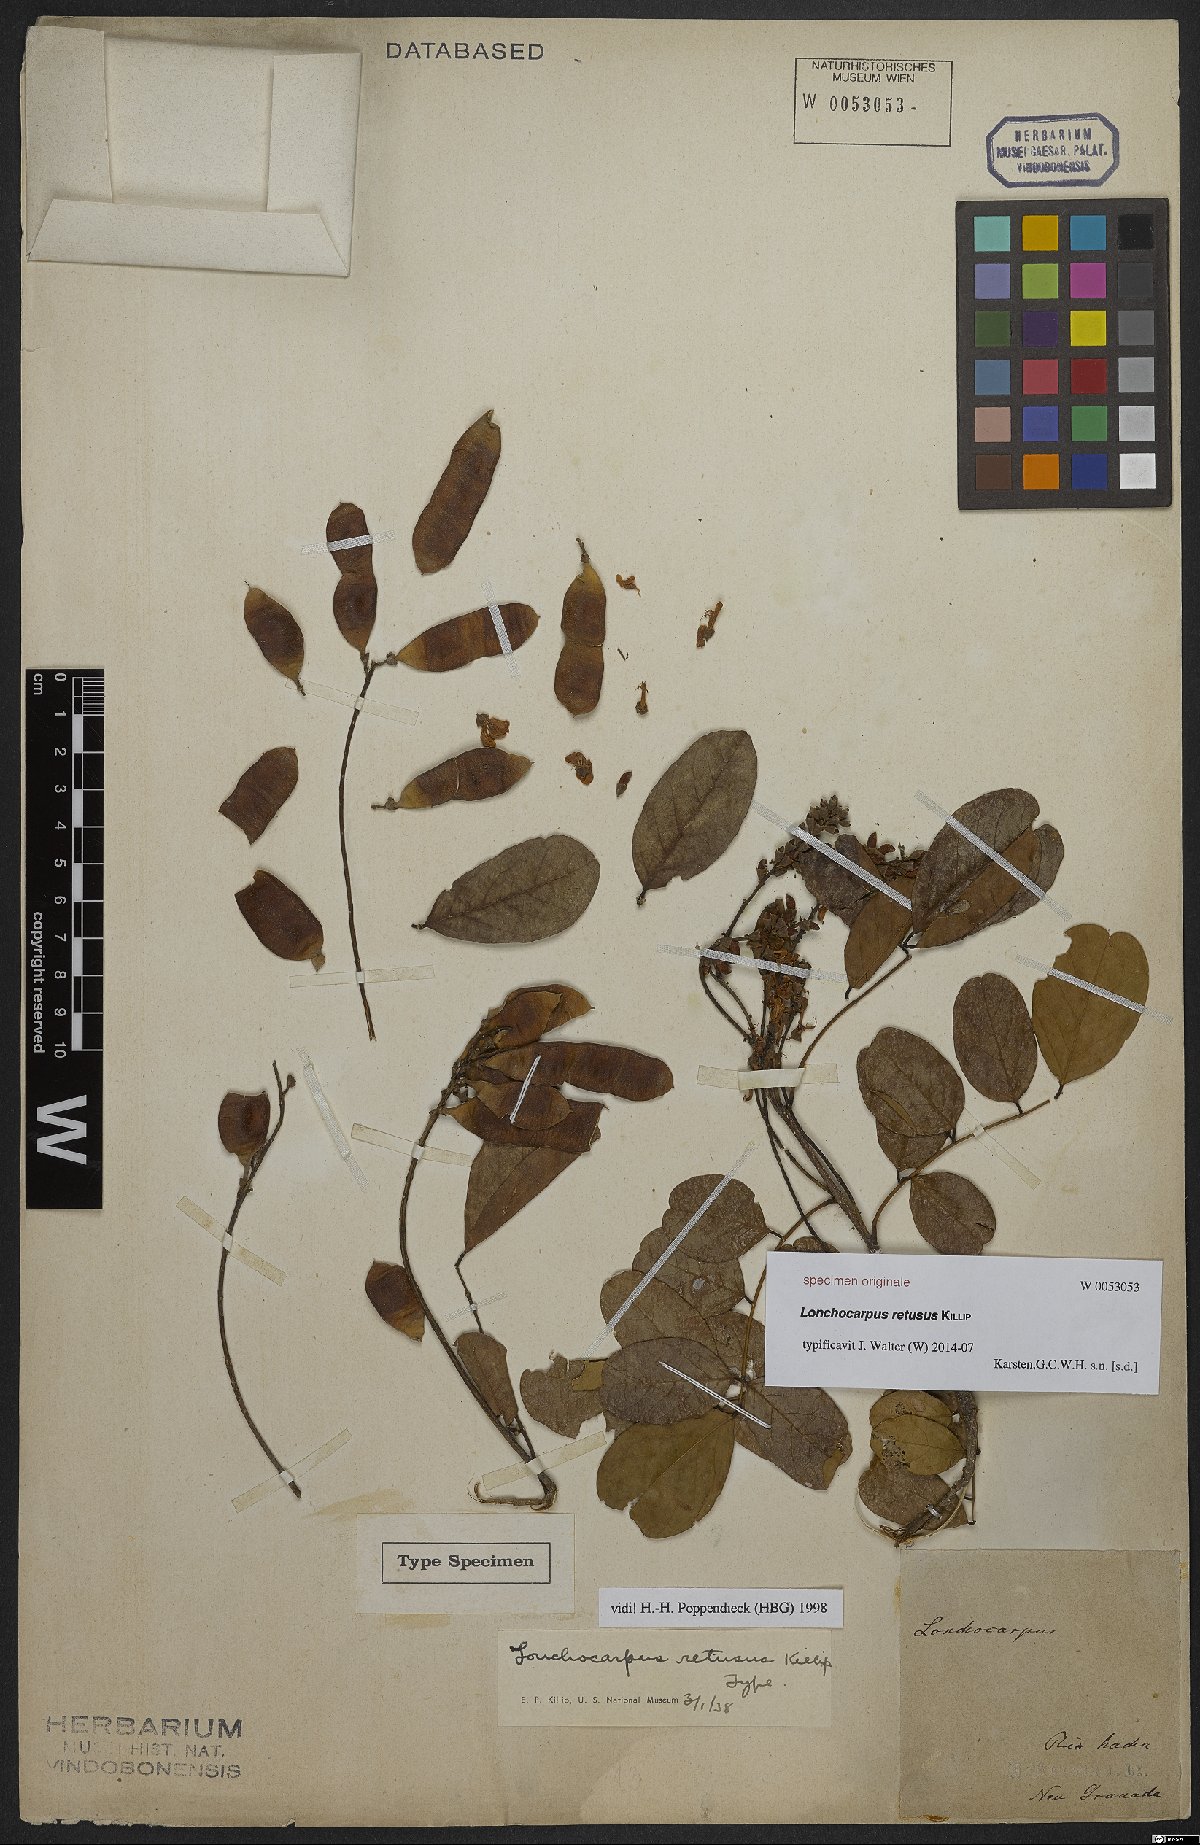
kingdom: Plantae
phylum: Tracheophyta
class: Magnoliopsida
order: Fabales
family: Fabaceae
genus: Lonchocarpus
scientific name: Lonchocarpus
